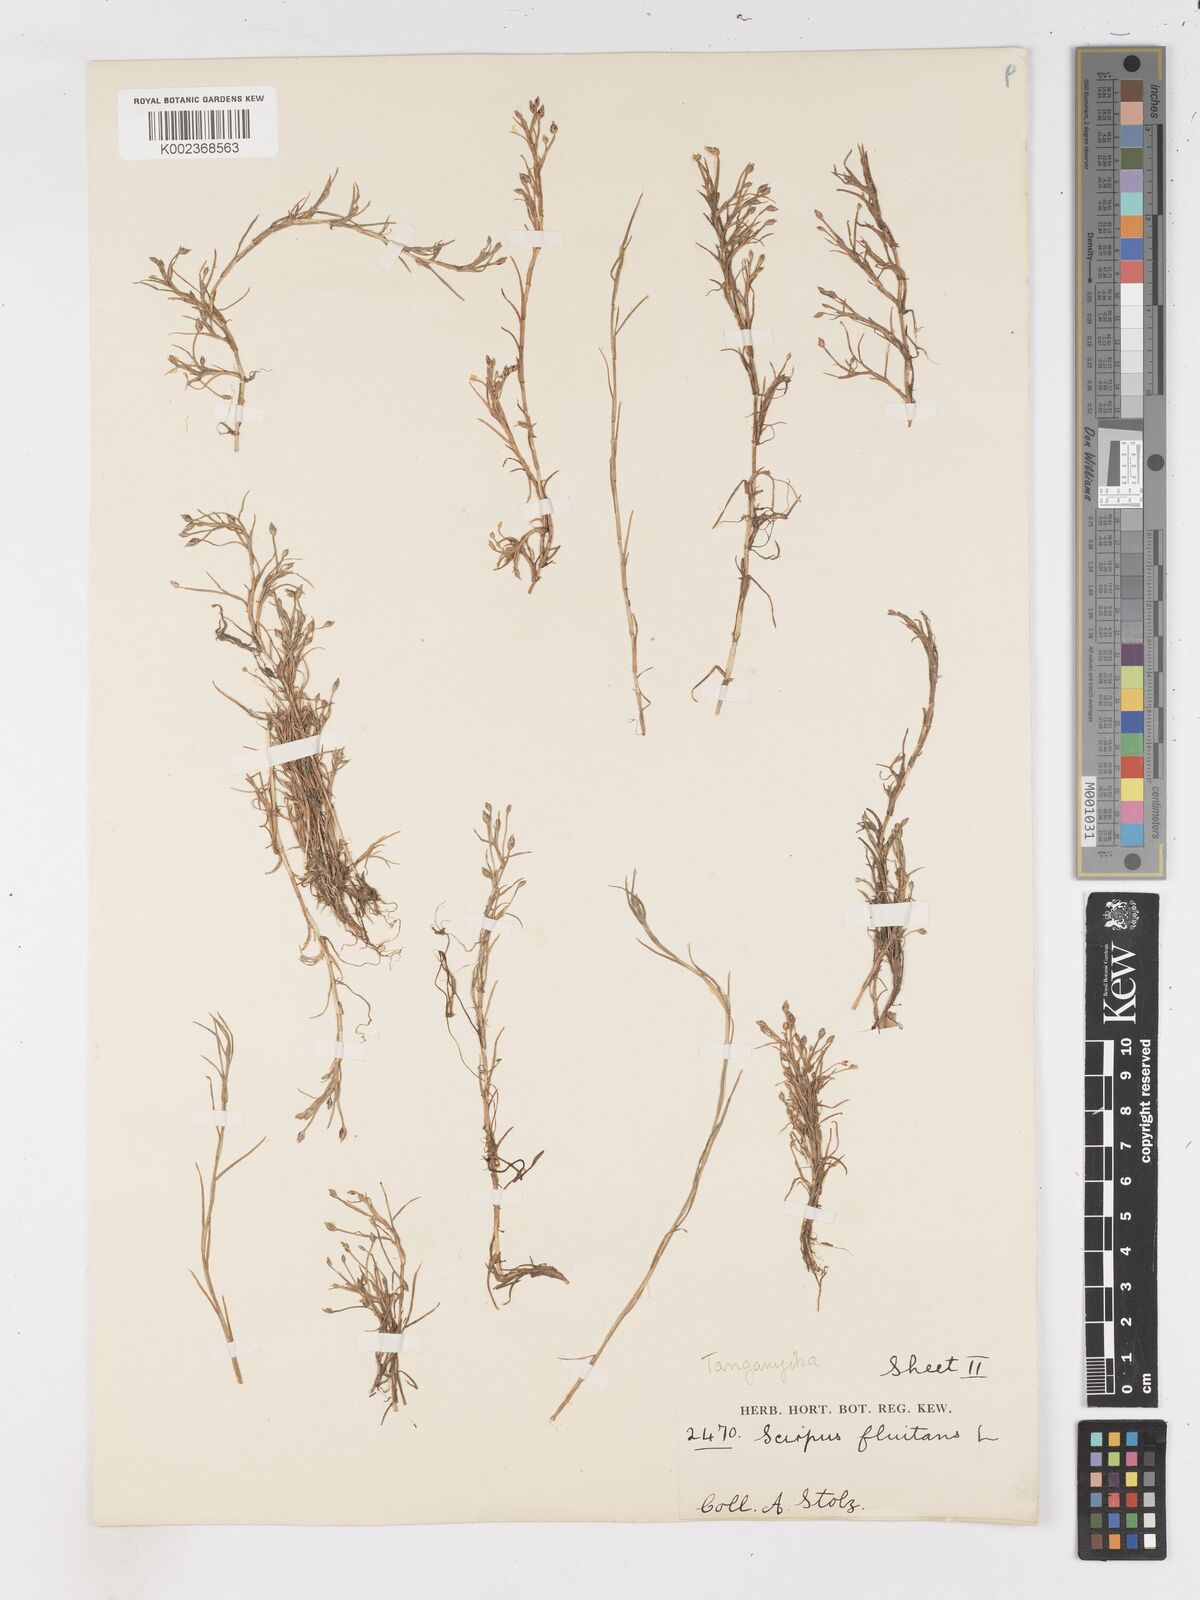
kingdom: Plantae
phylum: Tracheophyta
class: Liliopsida
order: Poales
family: Cyperaceae
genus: Isolepis
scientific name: Isolepis fluitans
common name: Floating club-rush
